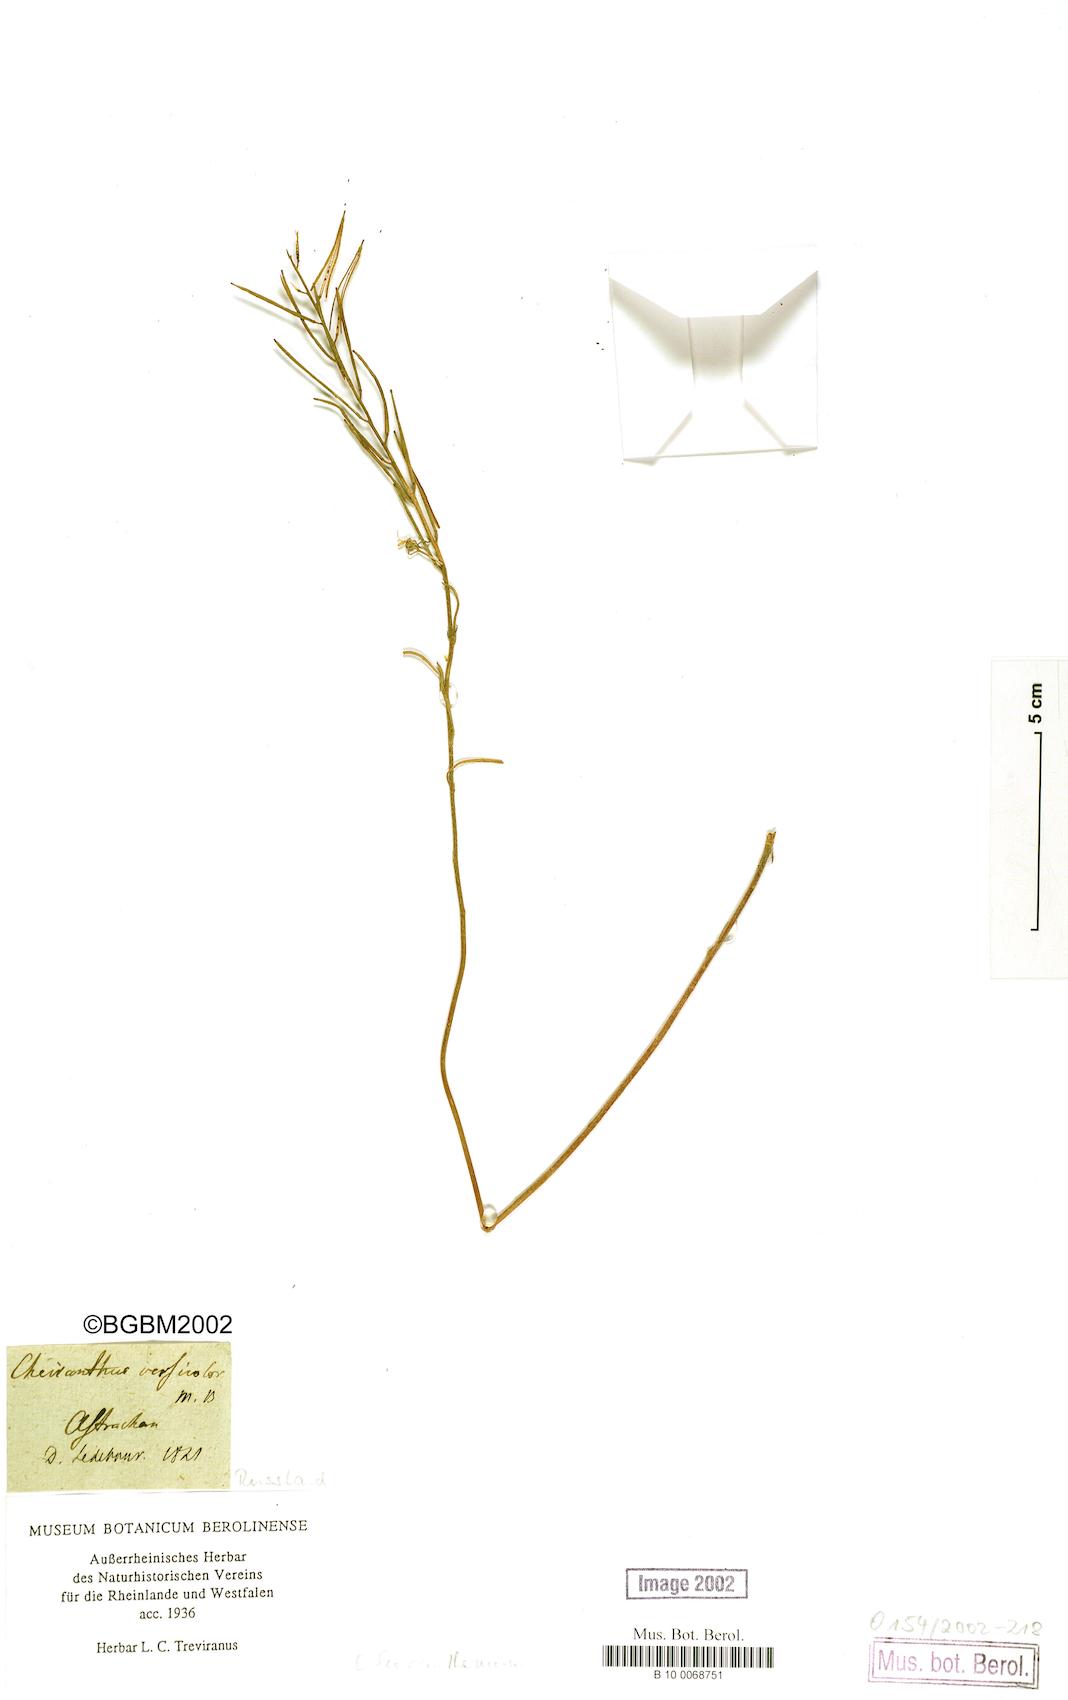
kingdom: Plantae
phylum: Tracheophyta
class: Magnoliopsida
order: Brassicales
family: Brassicaceae
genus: Erysimum
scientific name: Erysimum leucanthemum
